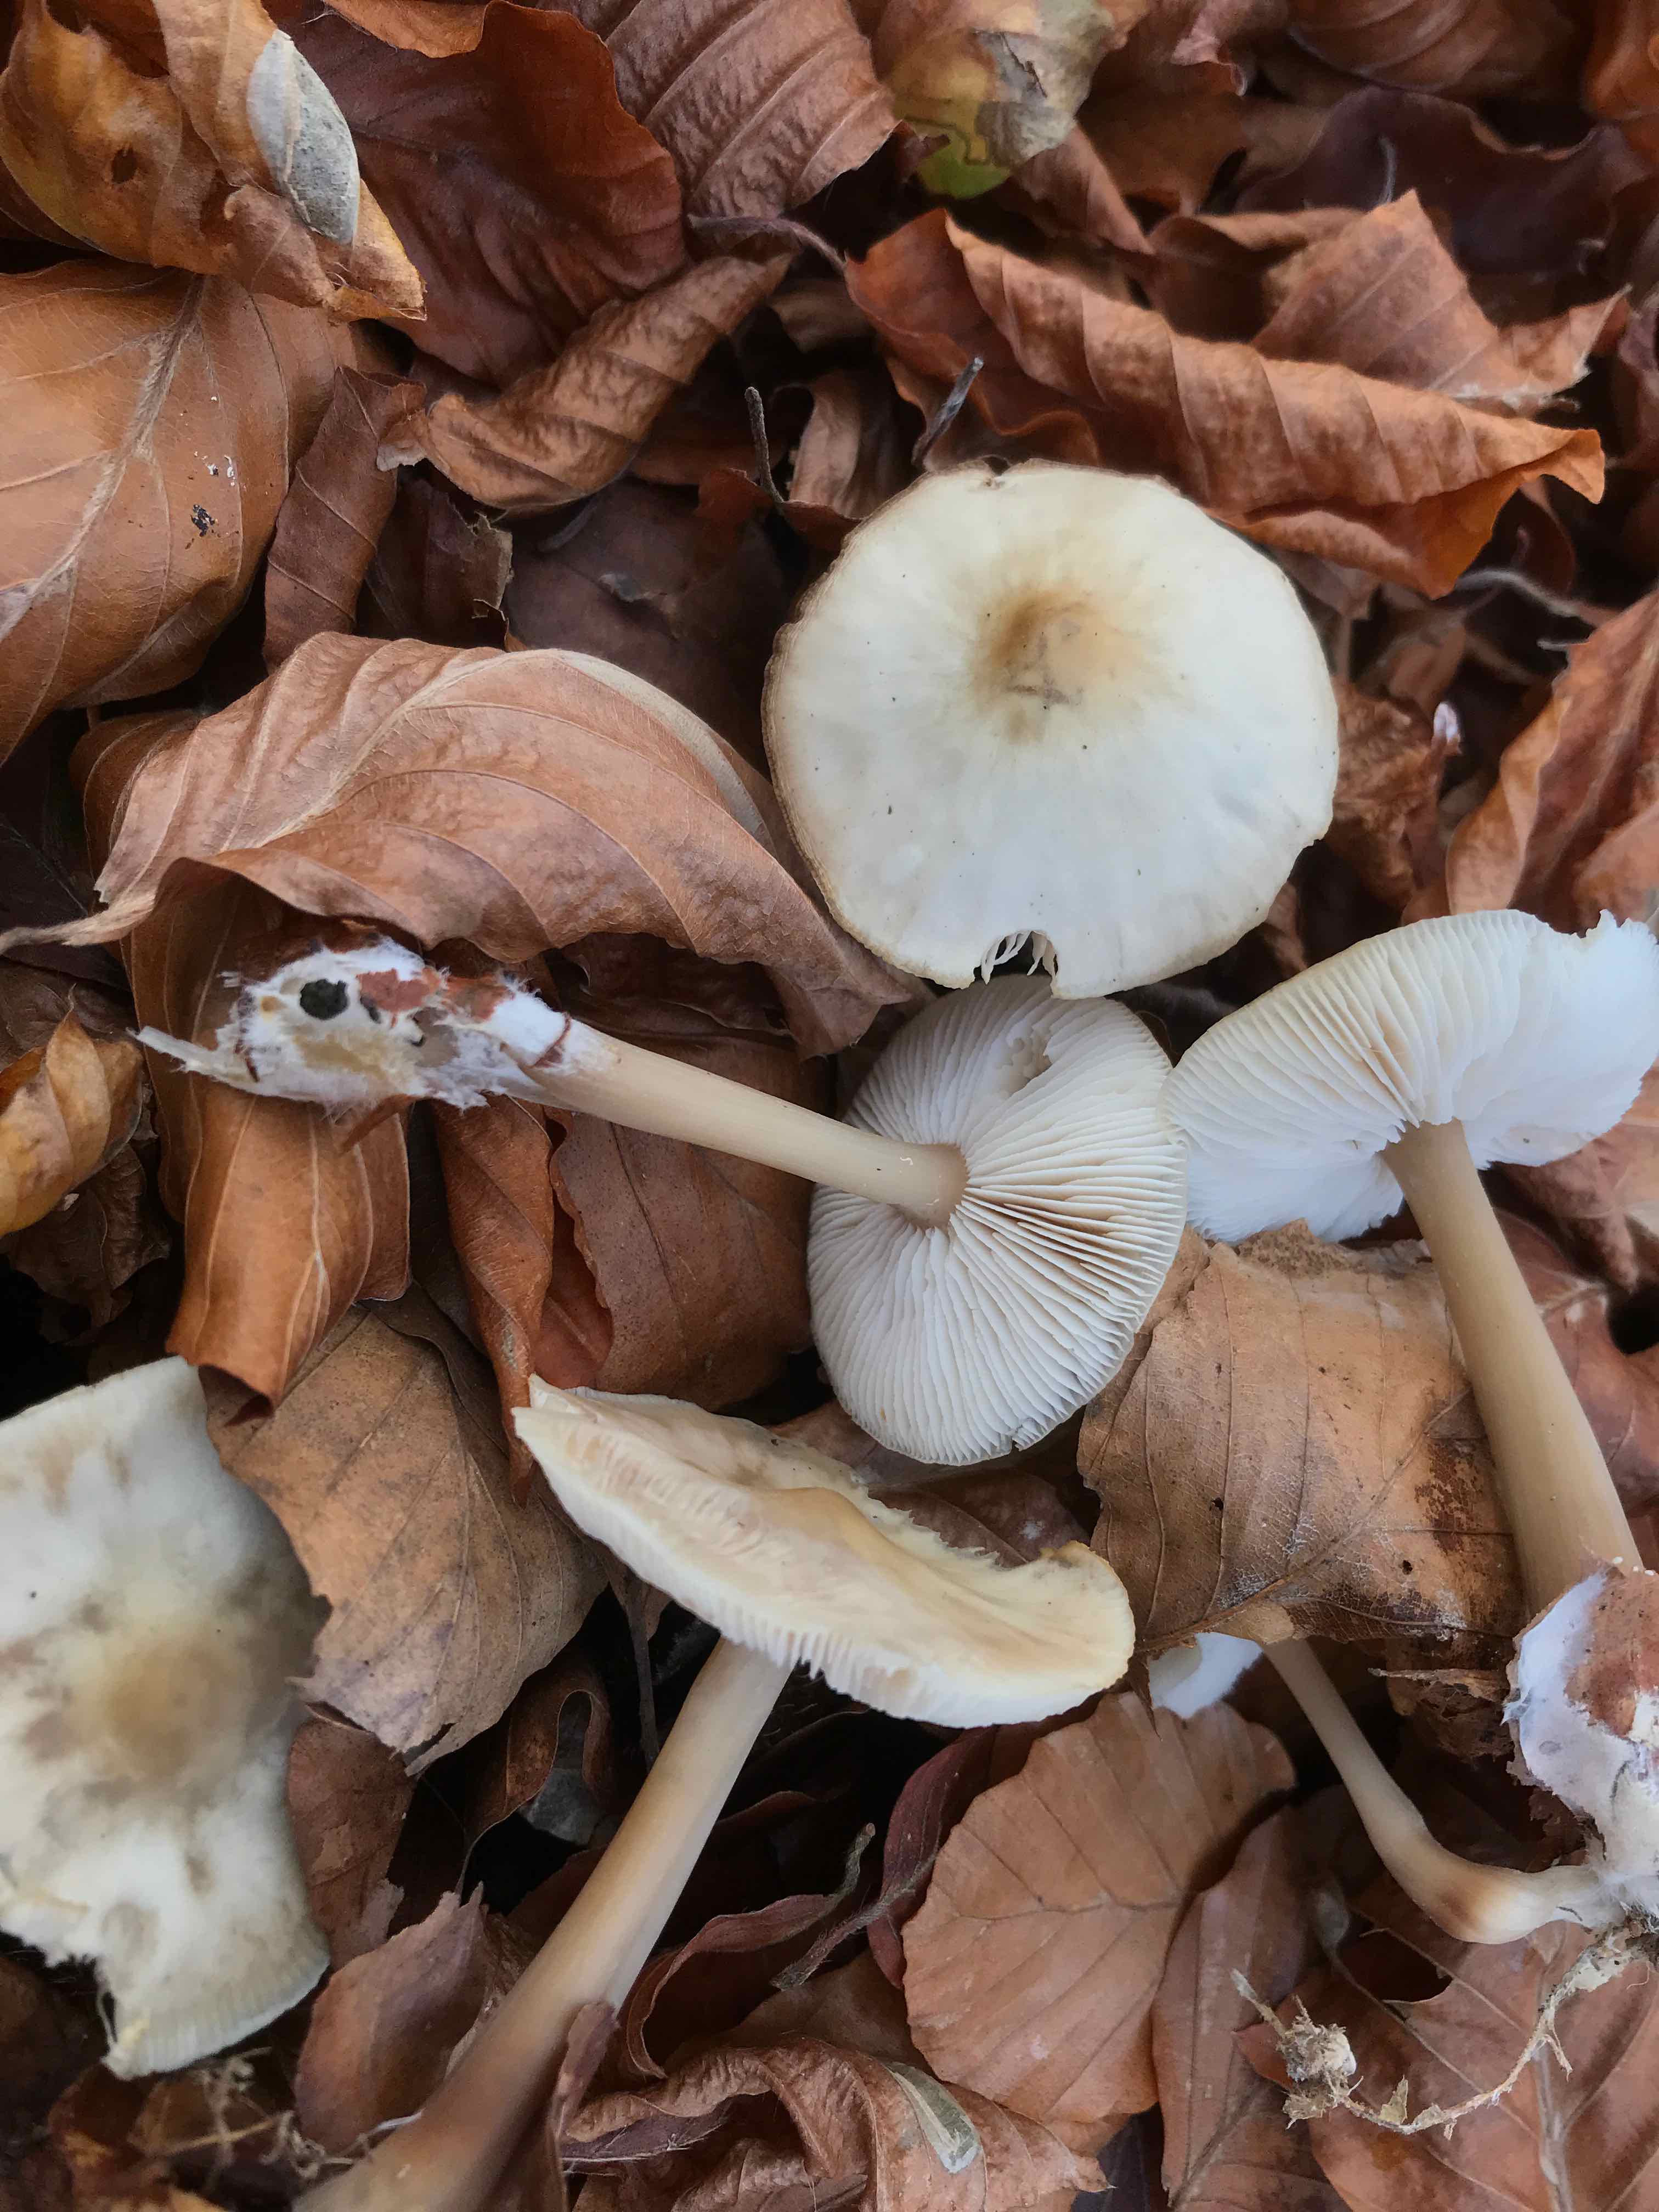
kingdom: Fungi
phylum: Basidiomycota
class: Agaricomycetes
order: Agaricales
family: Omphalotaceae
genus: Rhodocollybia
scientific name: Rhodocollybia asema
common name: horngrå fladhat
